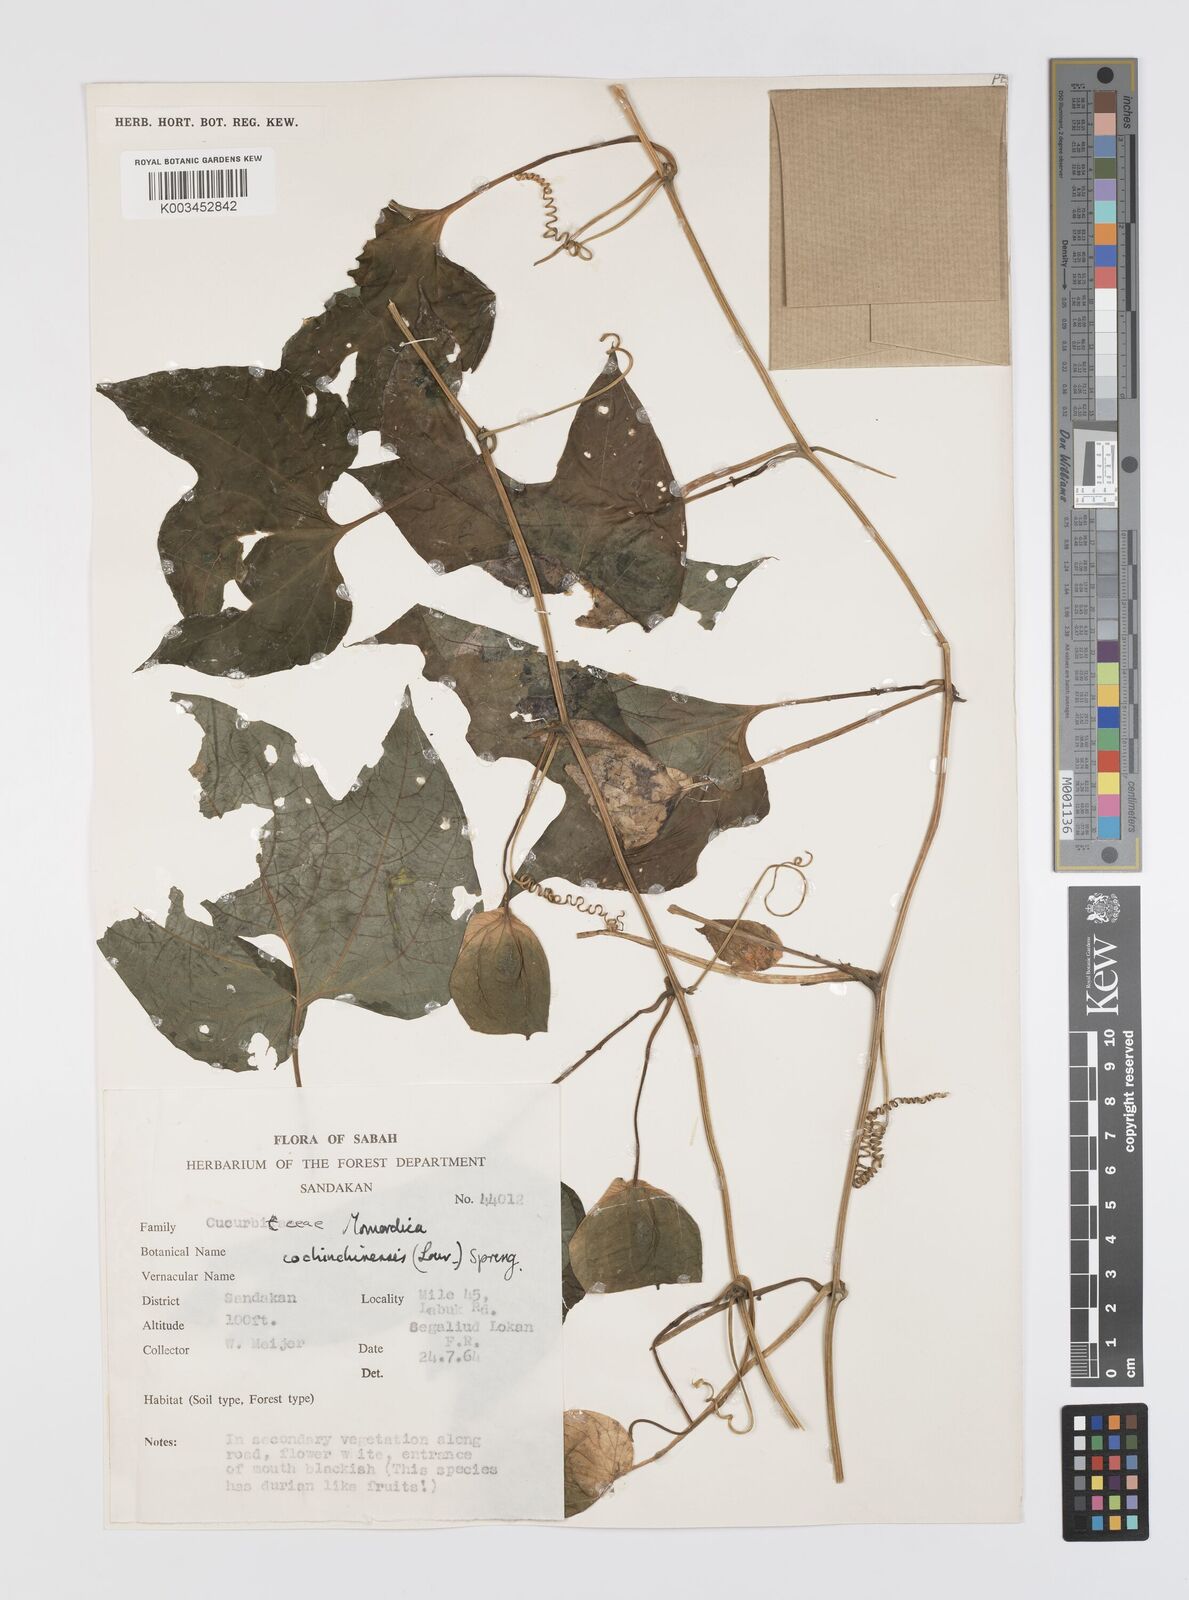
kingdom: Plantae
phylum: Tracheophyta
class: Magnoliopsida
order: Cucurbitales
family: Cucurbitaceae
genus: Momordica
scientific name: Momordica cochinchinensis
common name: Chinese bitter-cucumber
